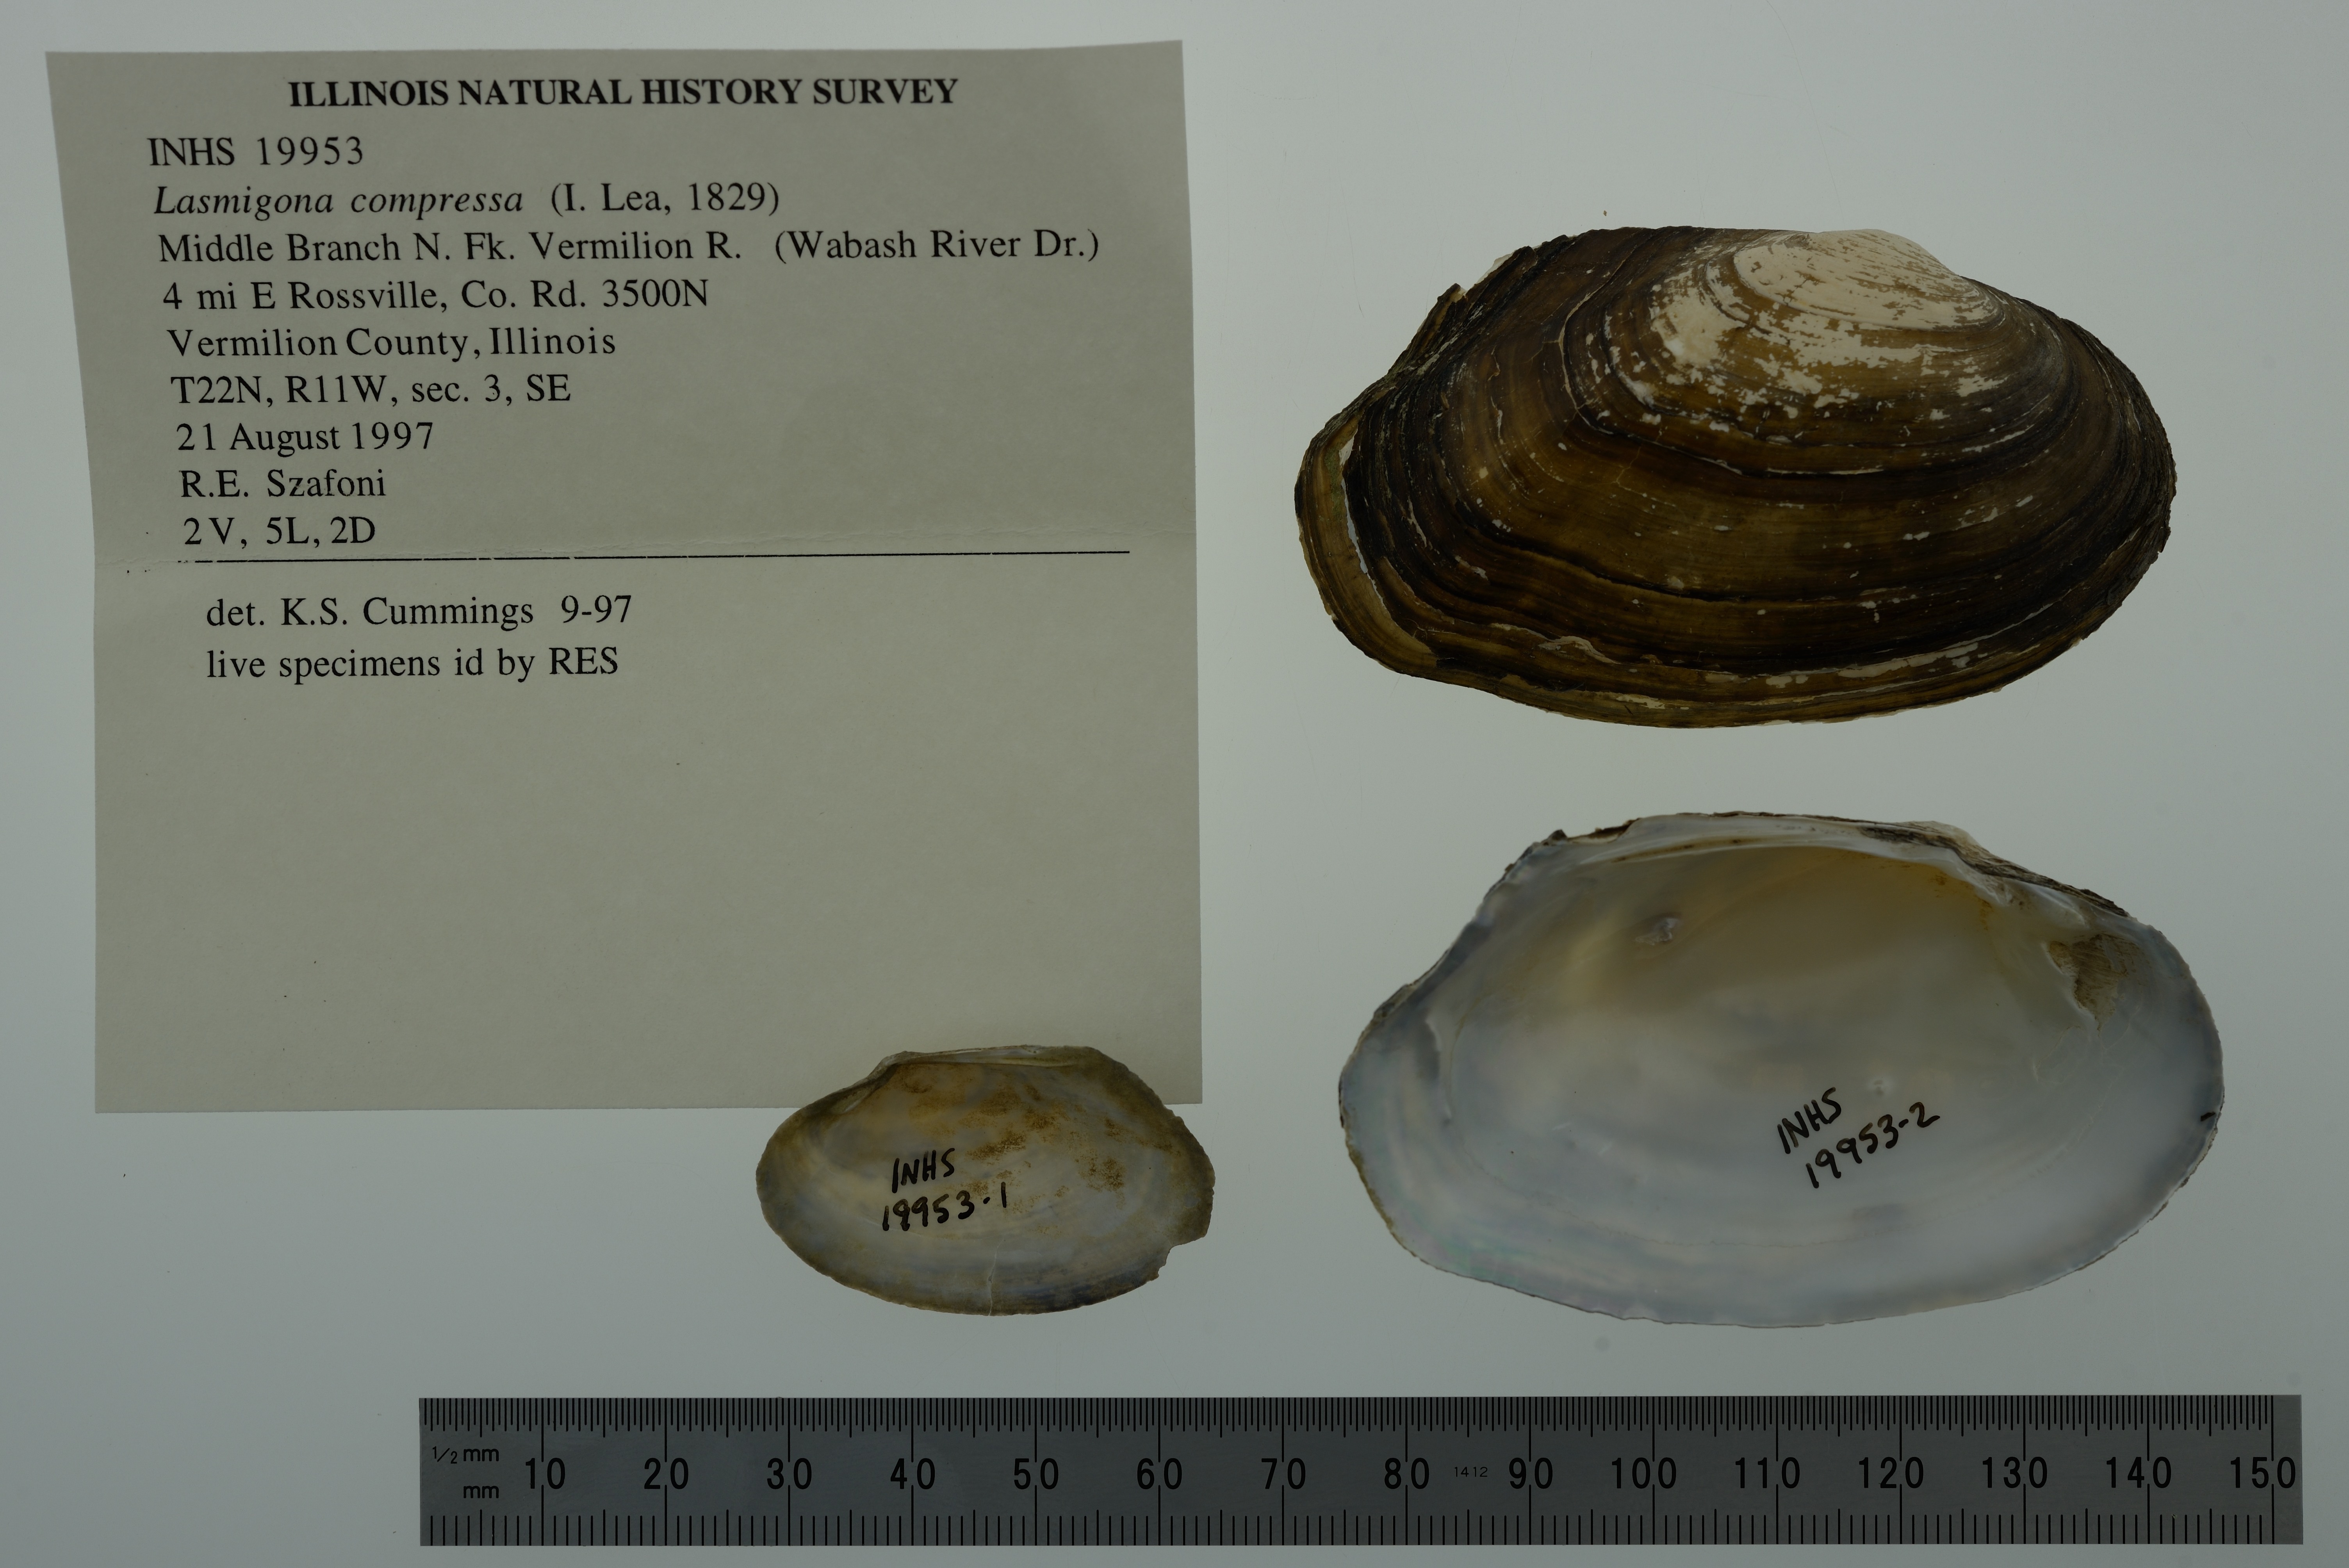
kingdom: Animalia
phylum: Mollusca
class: Bivalvia
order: Unionida
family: Unionidae
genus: Lasmigona
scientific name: Lasmigona compressa
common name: Creek heelsplitter
